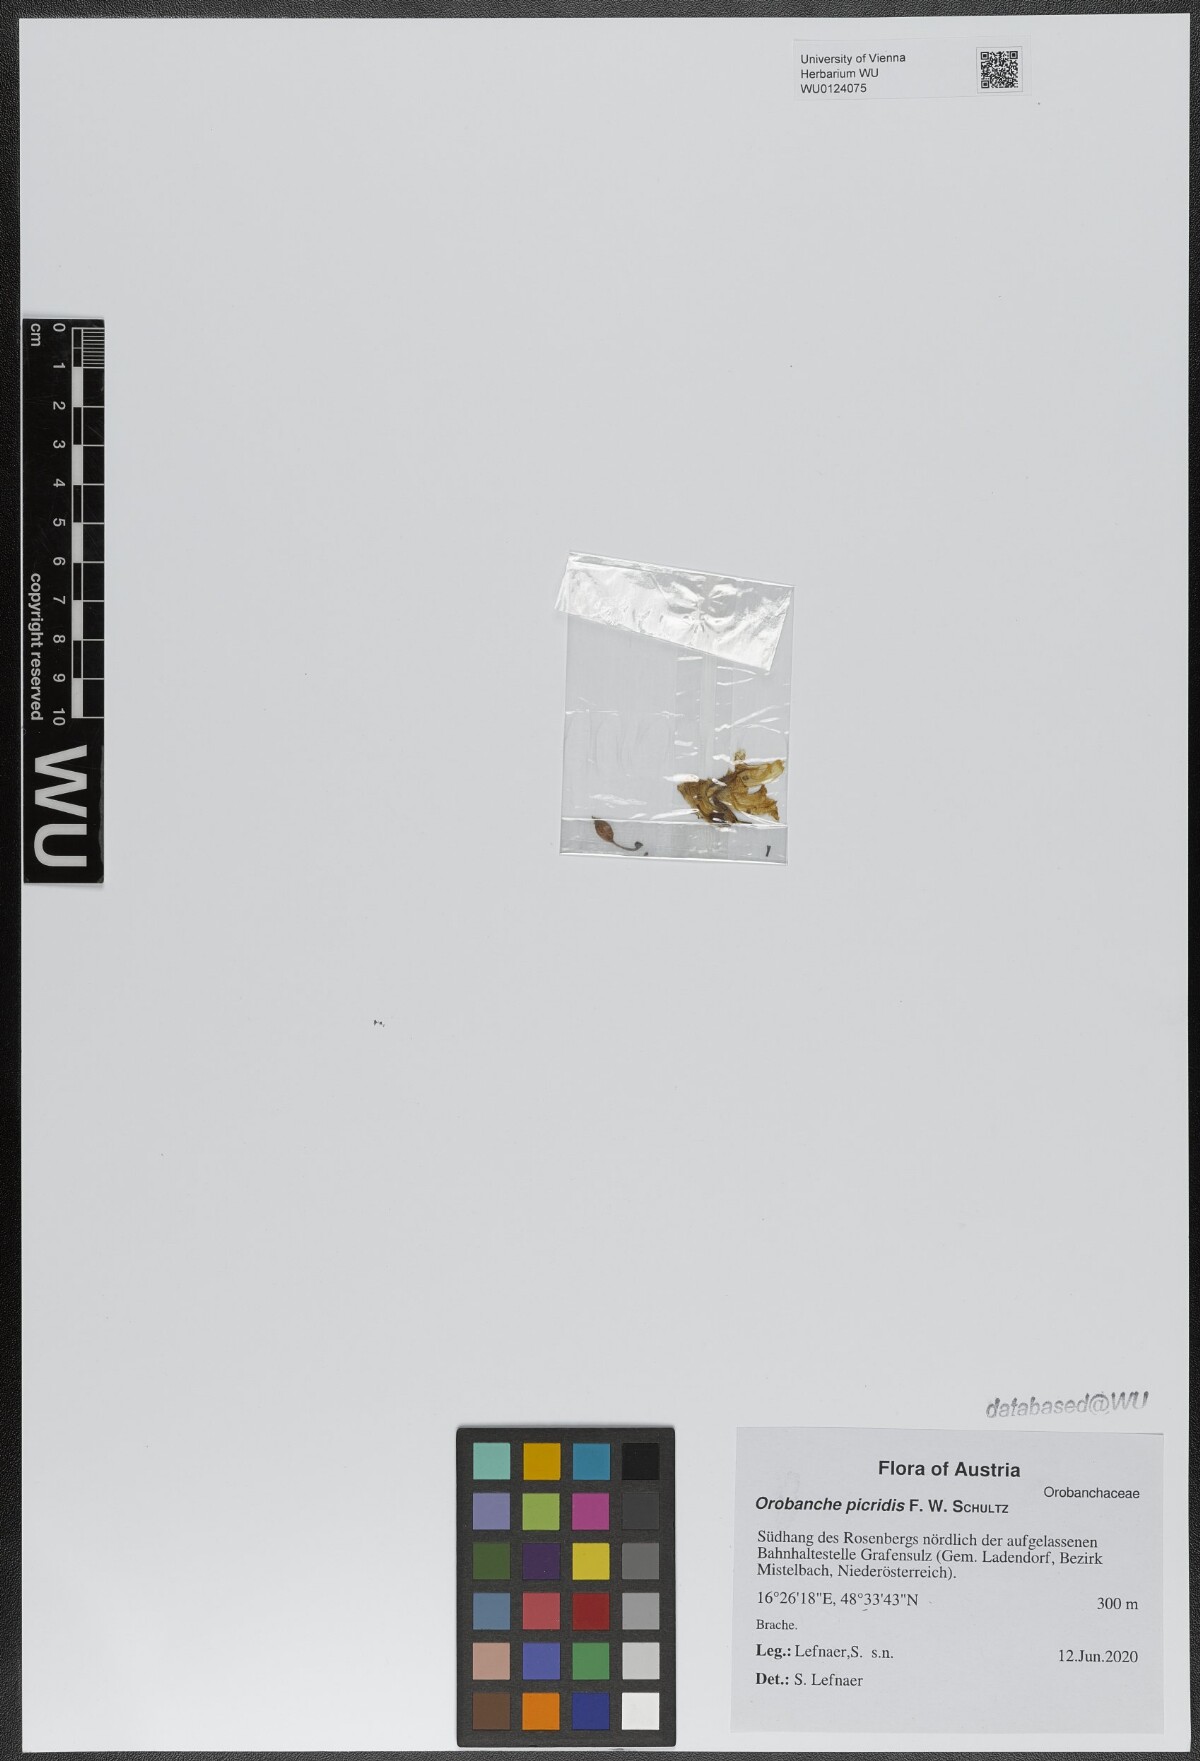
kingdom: Plantae
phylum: Tracheophyta
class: Magnoliopsida
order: Lamiales
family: Orobanchaceae
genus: Orobanche
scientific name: Orobanche picridis
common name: Oxtongue broomrape
